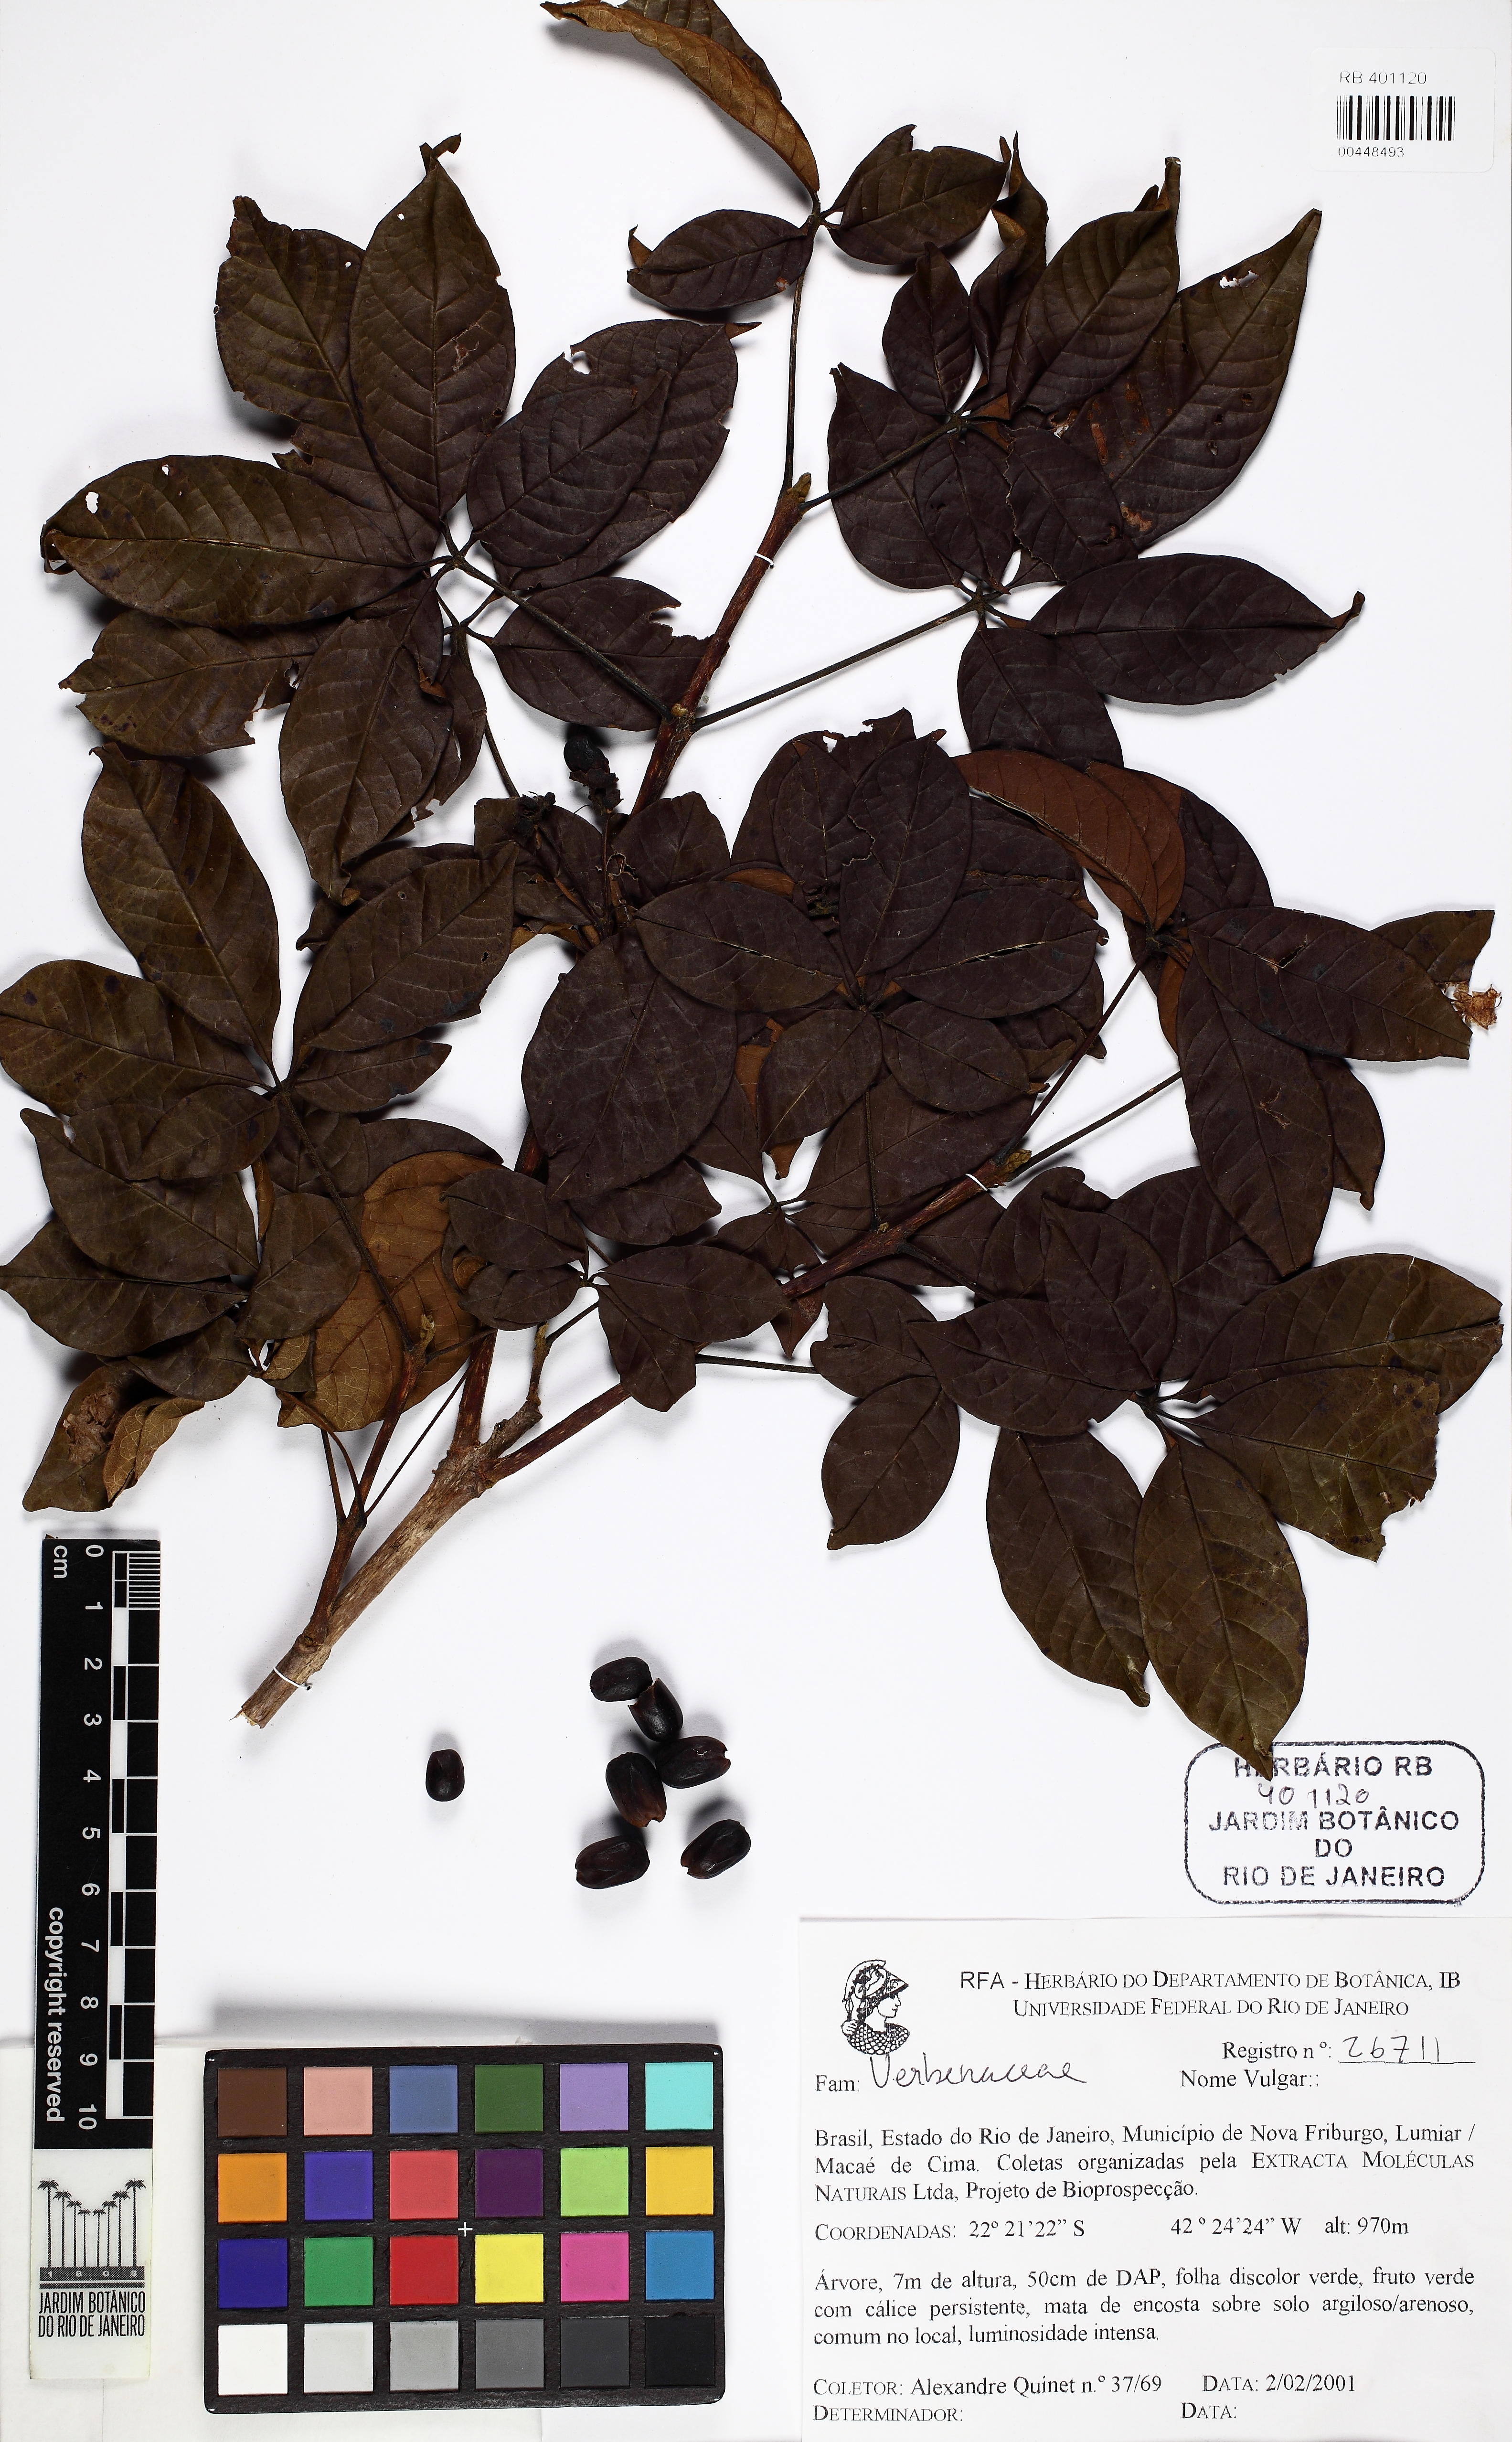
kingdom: Plantae
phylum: Tracheophyta
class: Magnoliopsida
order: Lamiales
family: Lamiaceae
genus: Vitex
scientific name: Vitex
